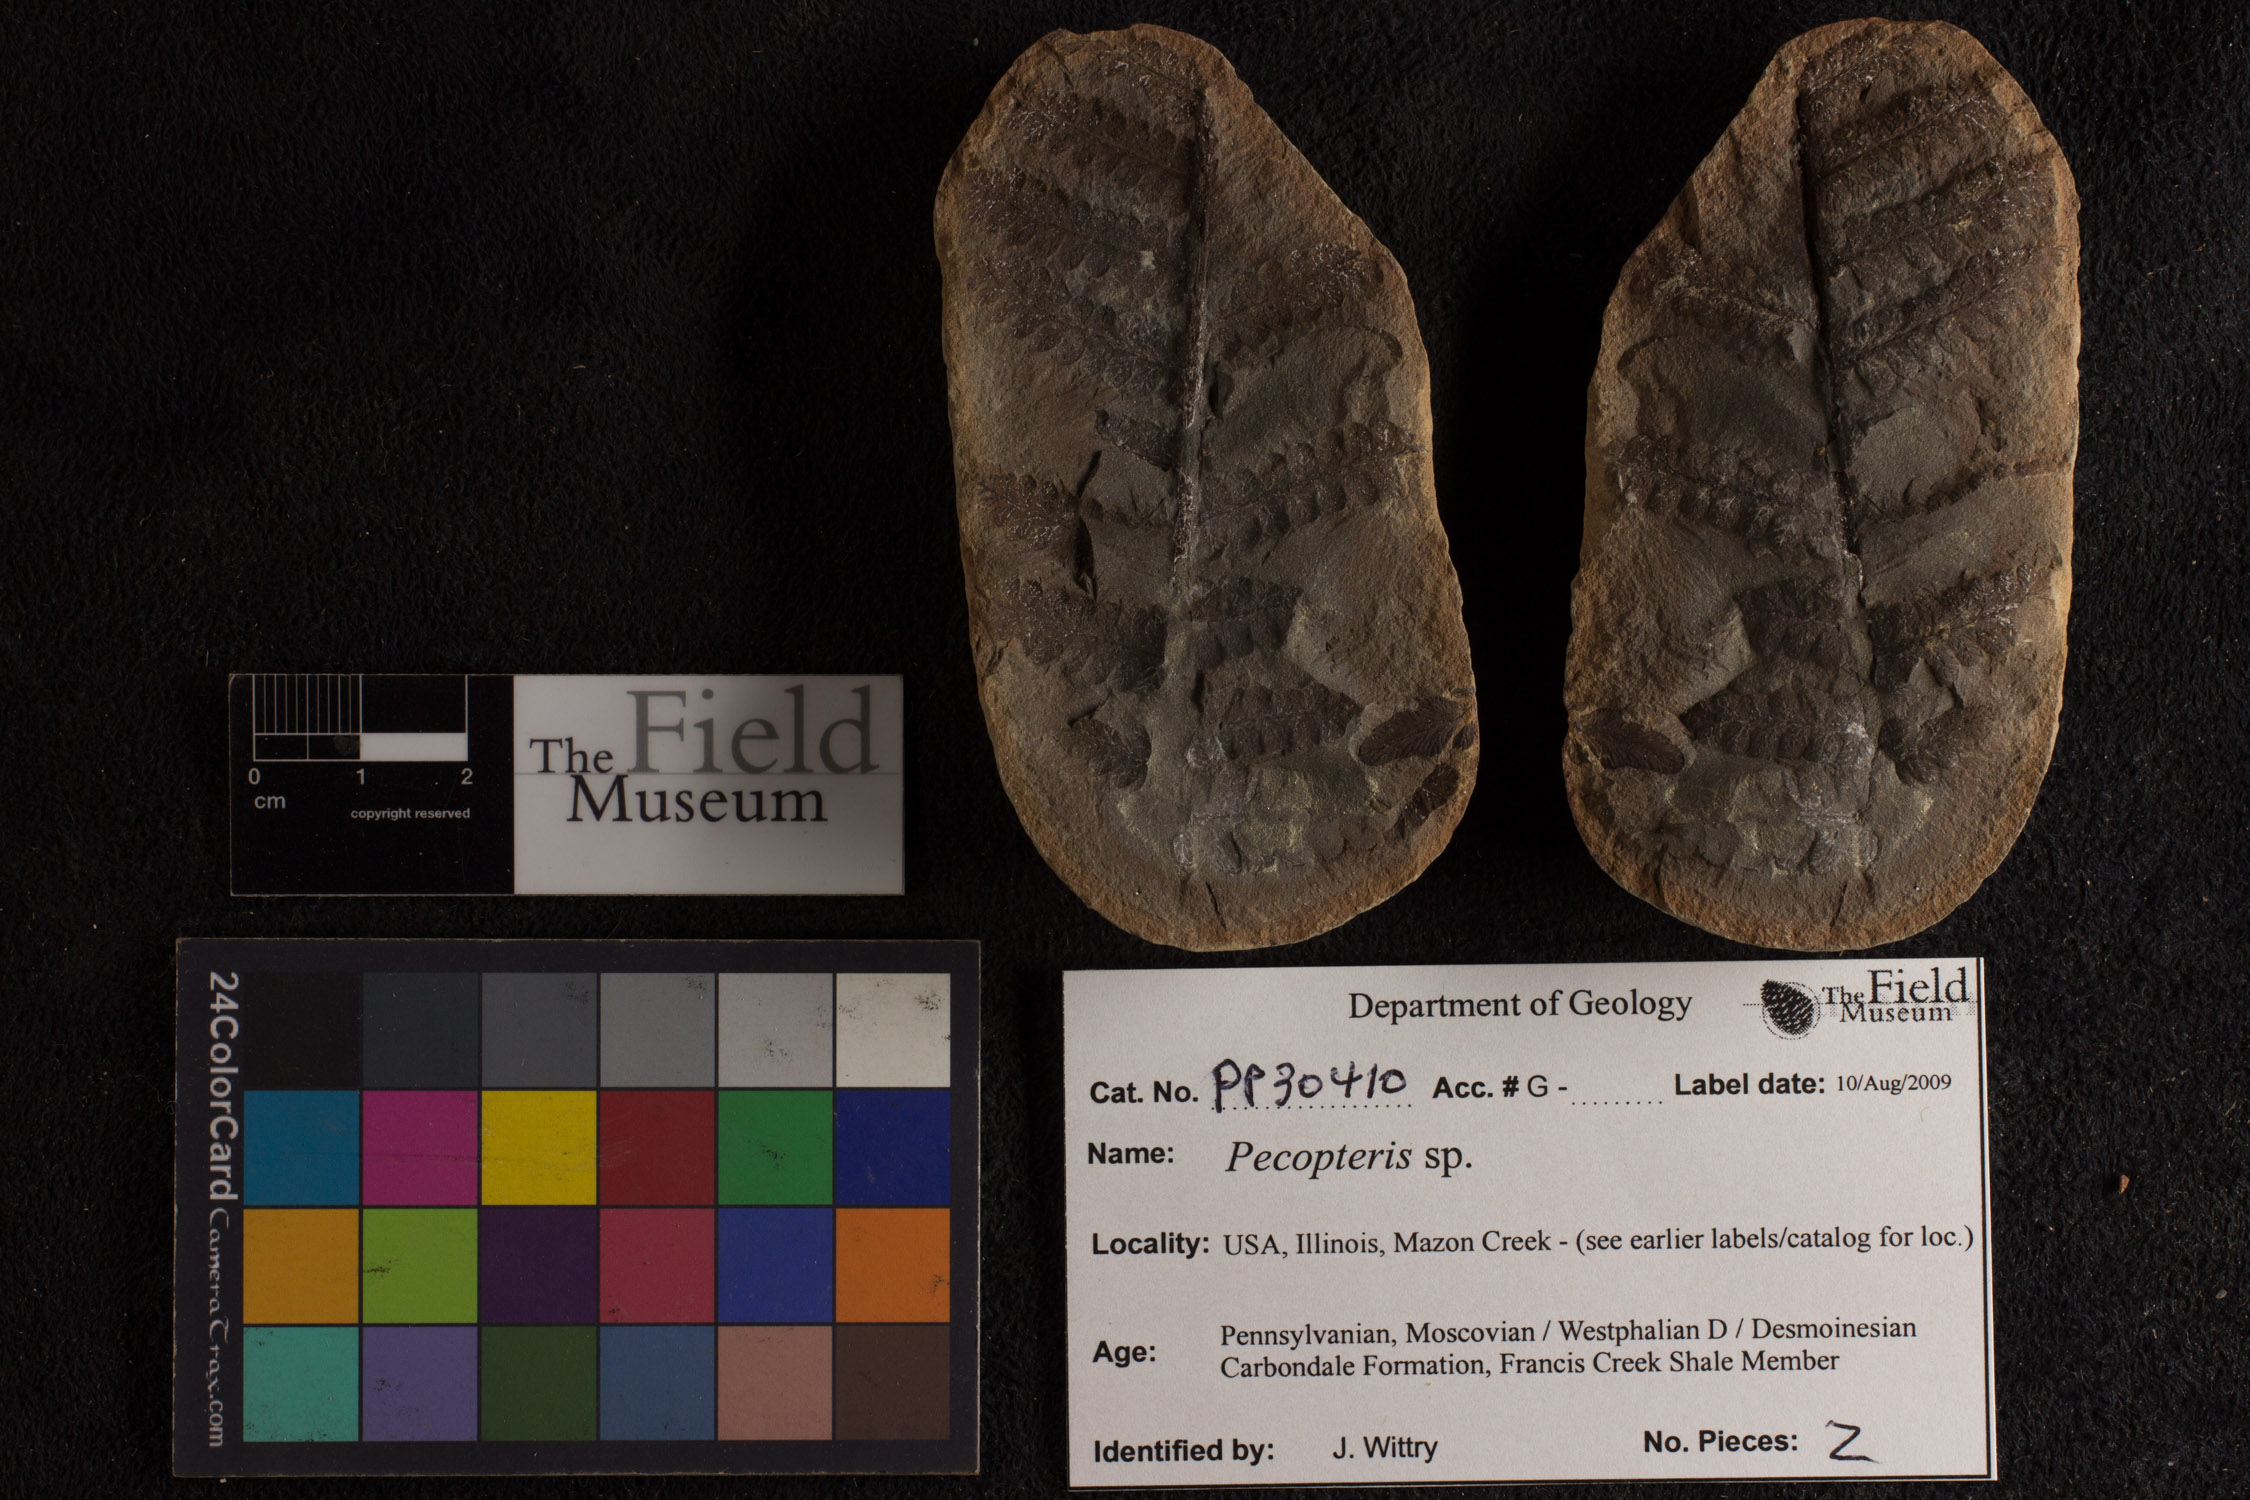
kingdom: Plantae
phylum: Tracheophyta
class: Polypodiopsida
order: Marattiales
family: Asterothecaceae
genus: Pecopteris
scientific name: Pecopteris
